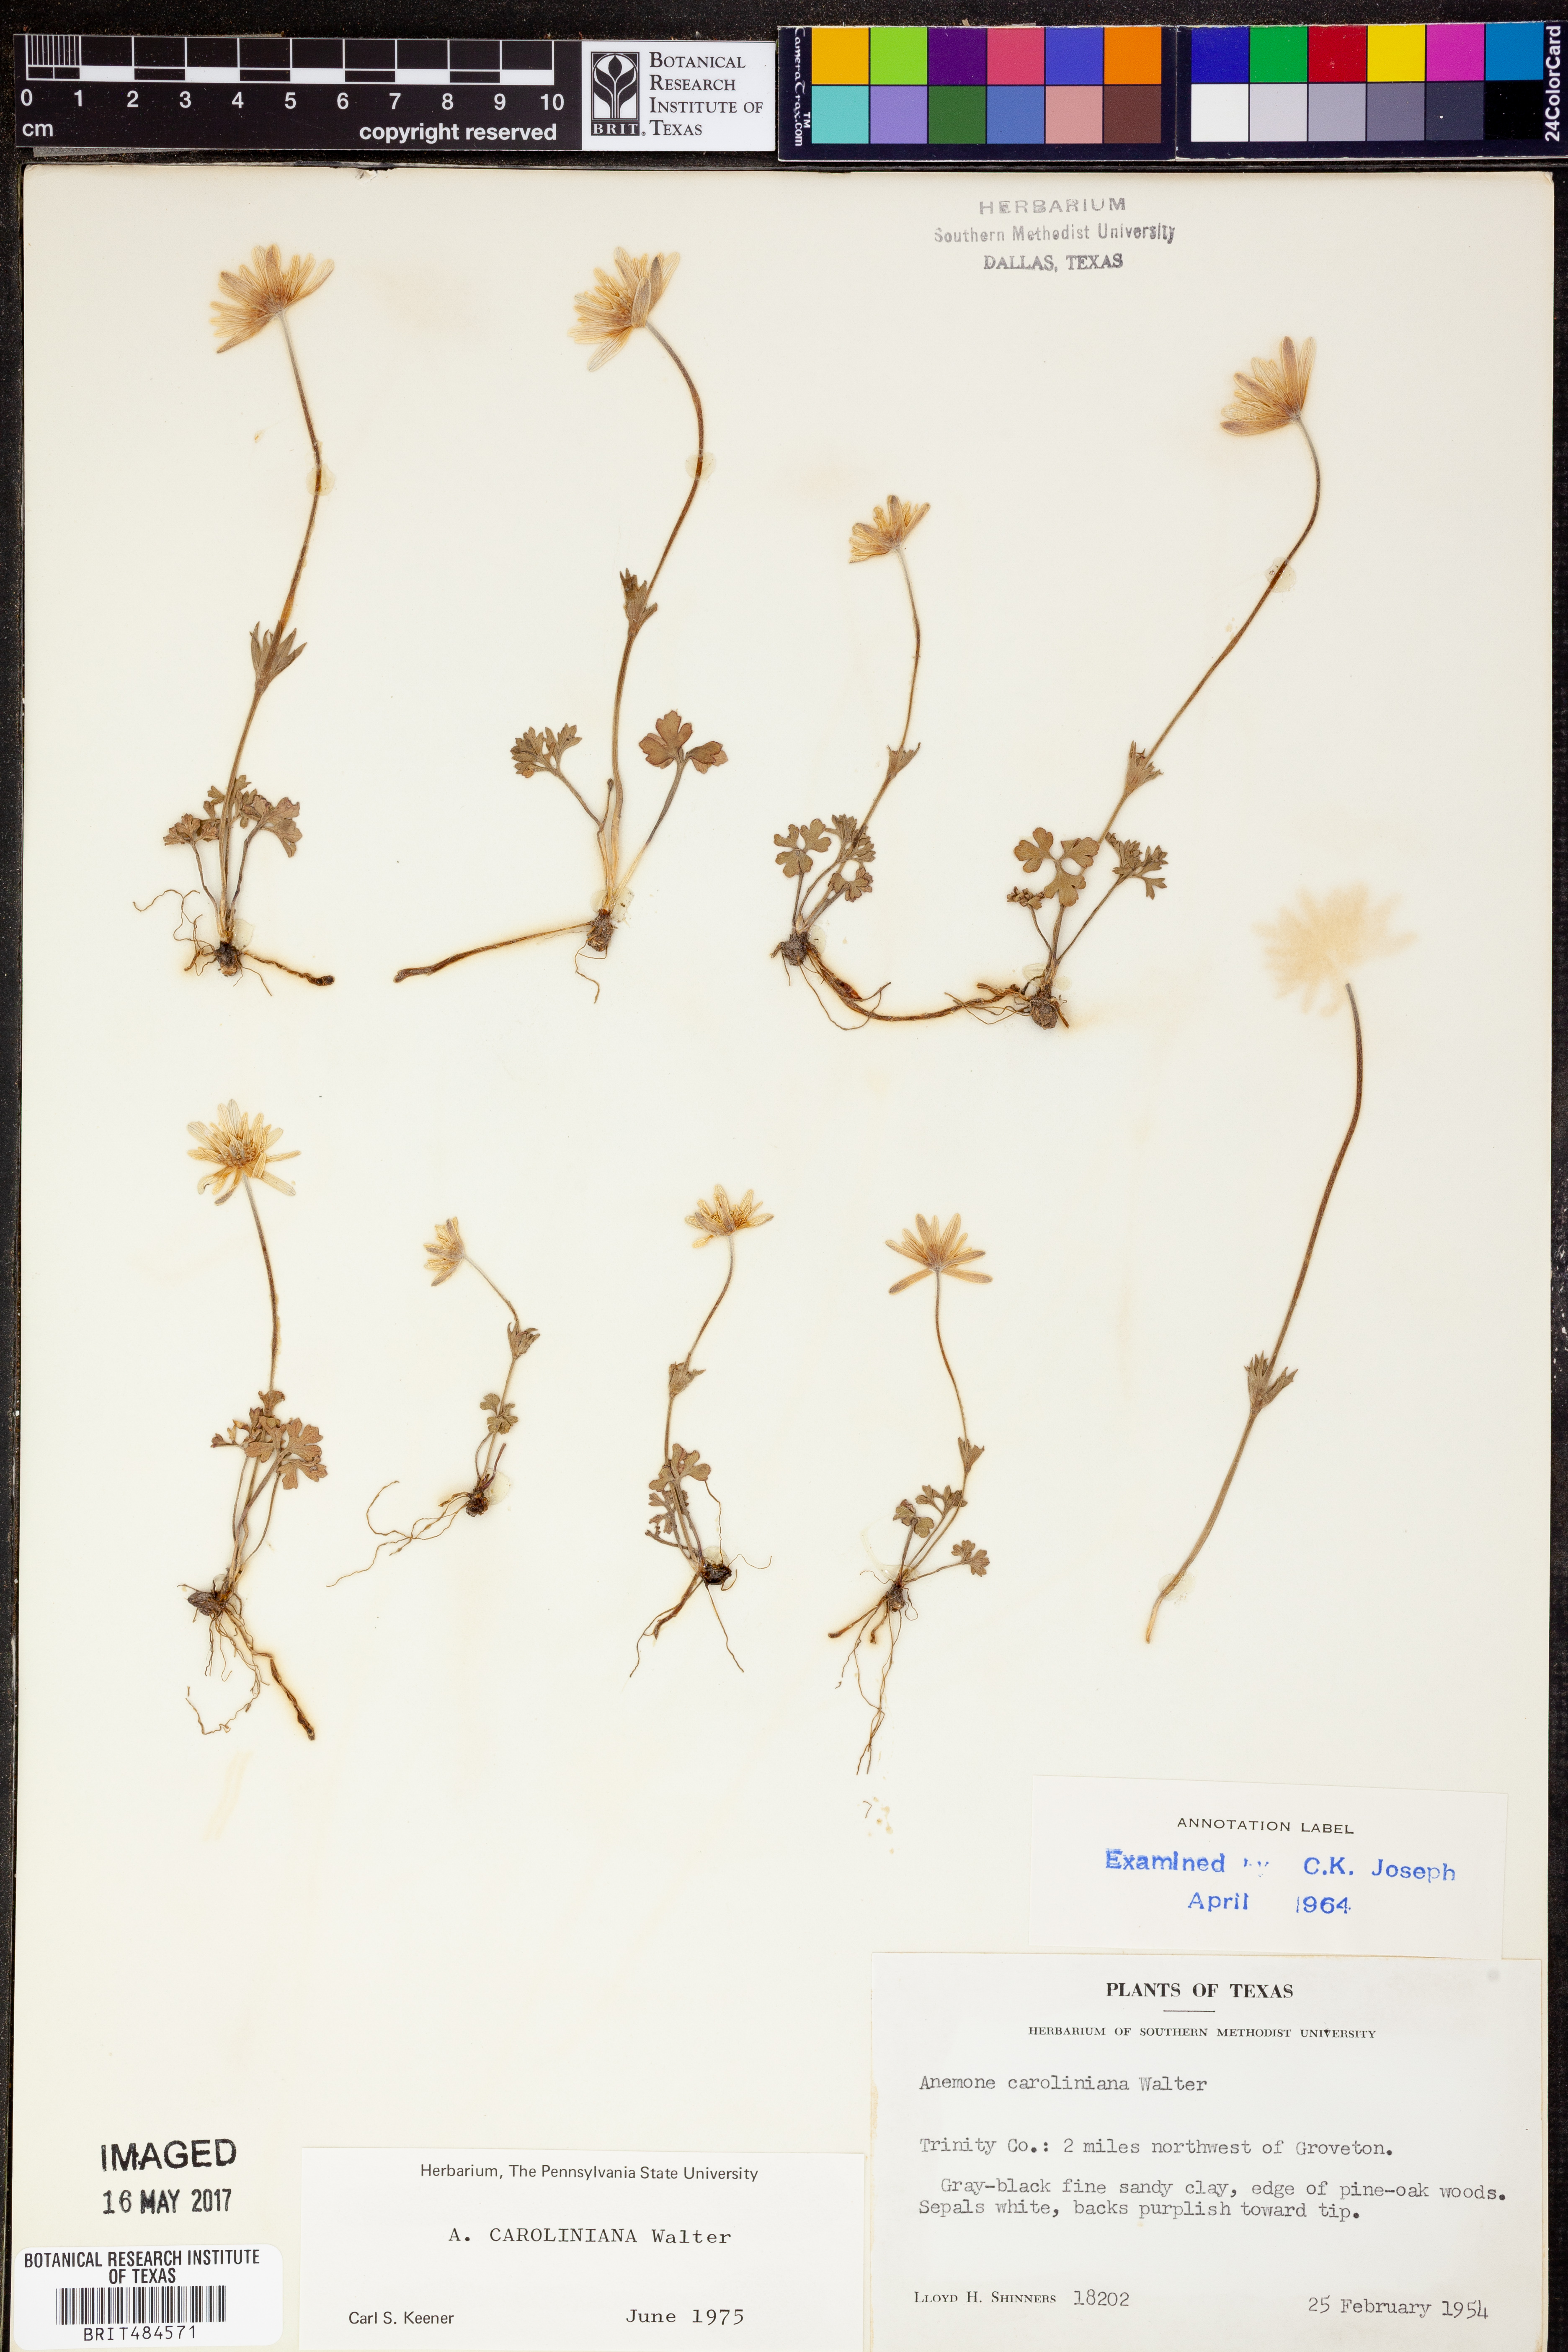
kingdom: Plantae
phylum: Tracheophyta
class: Magnoliopsida
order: Ranunculales
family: Ranunculaceae
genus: Anemone
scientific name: Anemone caroliniana
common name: Carolina anemone
